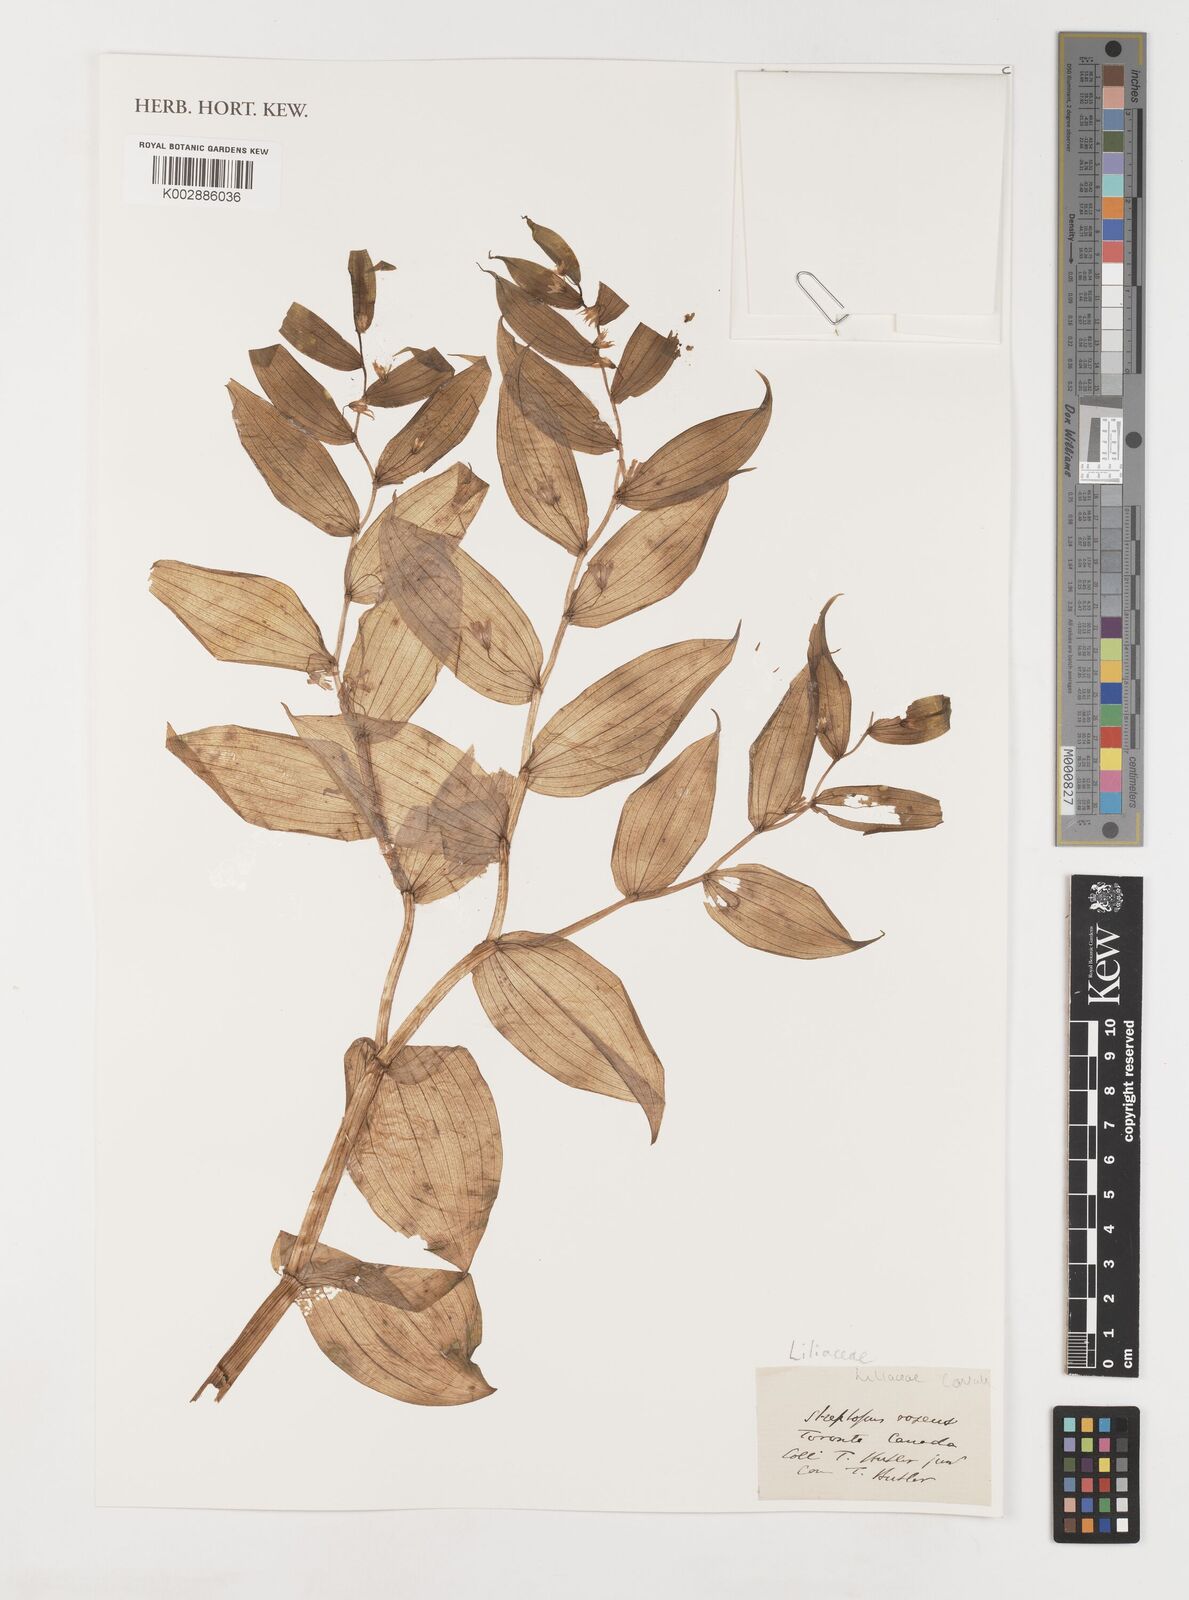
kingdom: Plantae
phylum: Tracheophyta
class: Liliopsida
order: Liliales
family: Liliaceae
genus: Streptopus
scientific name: Streptopus lanceolatus
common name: Rose mandarin
